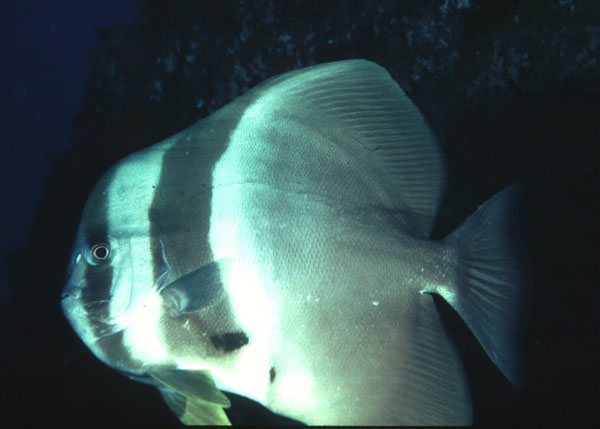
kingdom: Animalia
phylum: Chordata
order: Perciformes
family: Ephippidae
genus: Platax
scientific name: Platax teira
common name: Longfin baitfish
